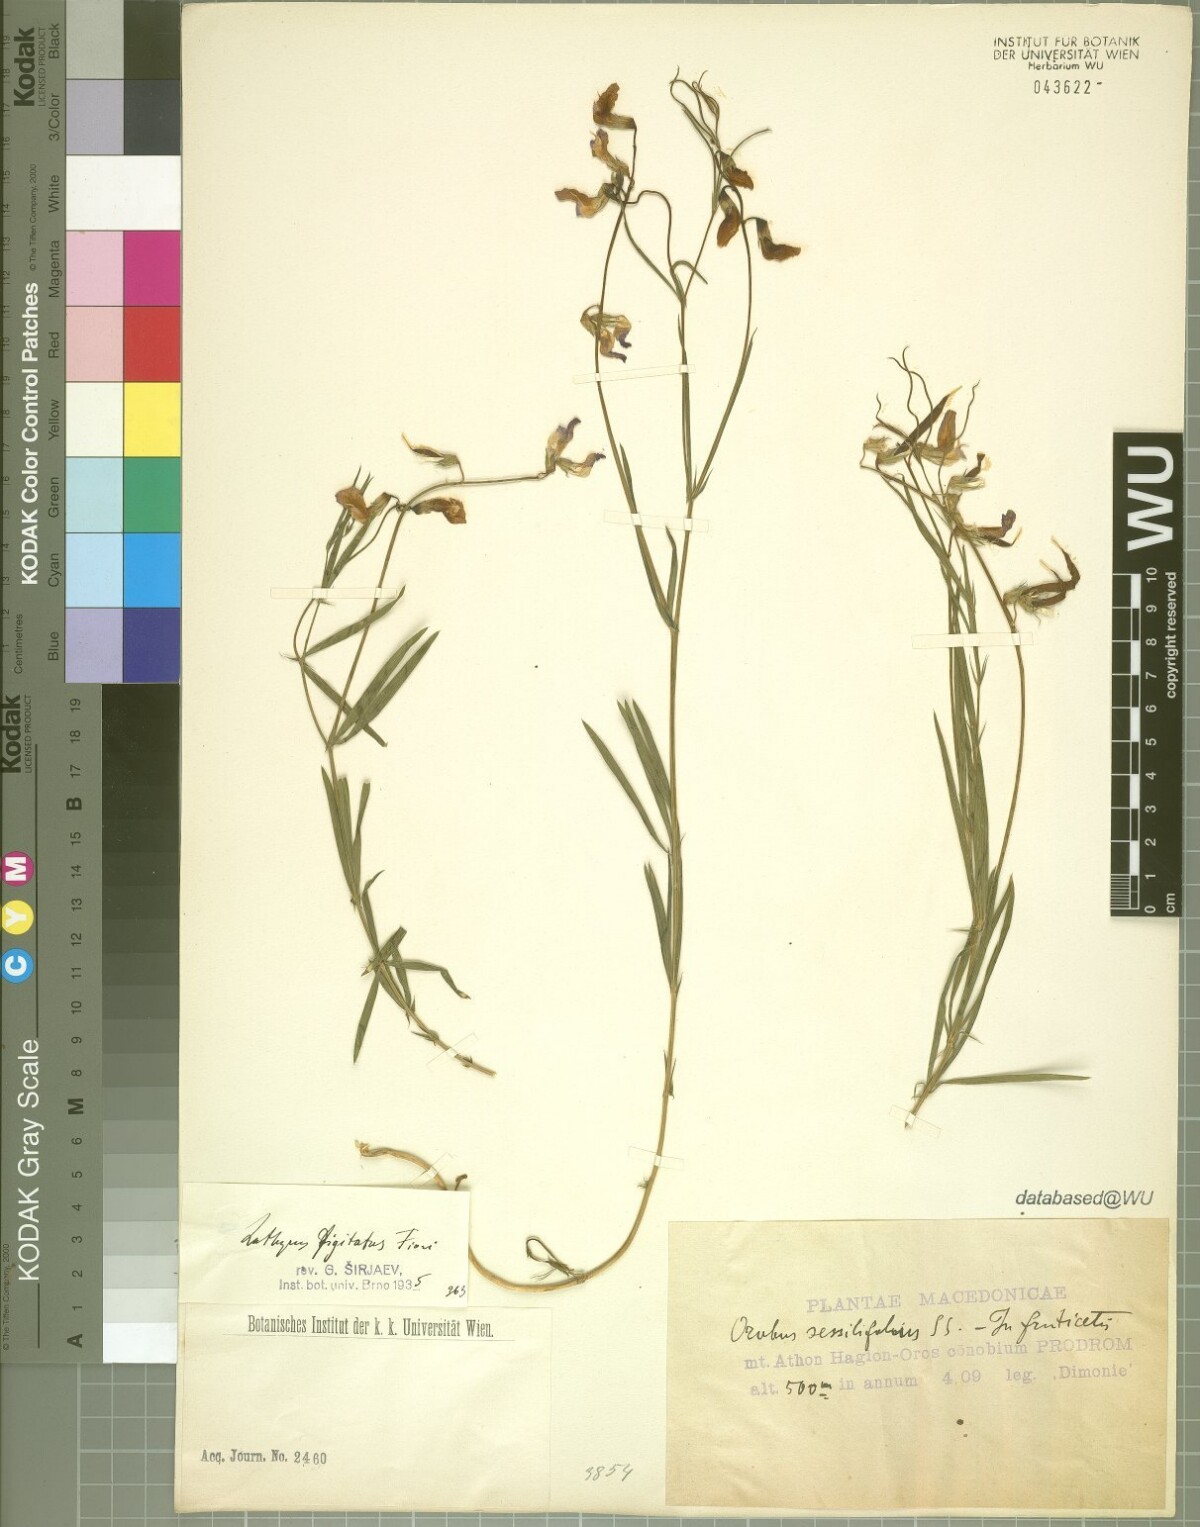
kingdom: Plantae
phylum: Tracheophyta
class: Magnoliopsida
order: Fabales
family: Fabaceae
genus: Lathyrus
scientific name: Lathyrus digitatus
